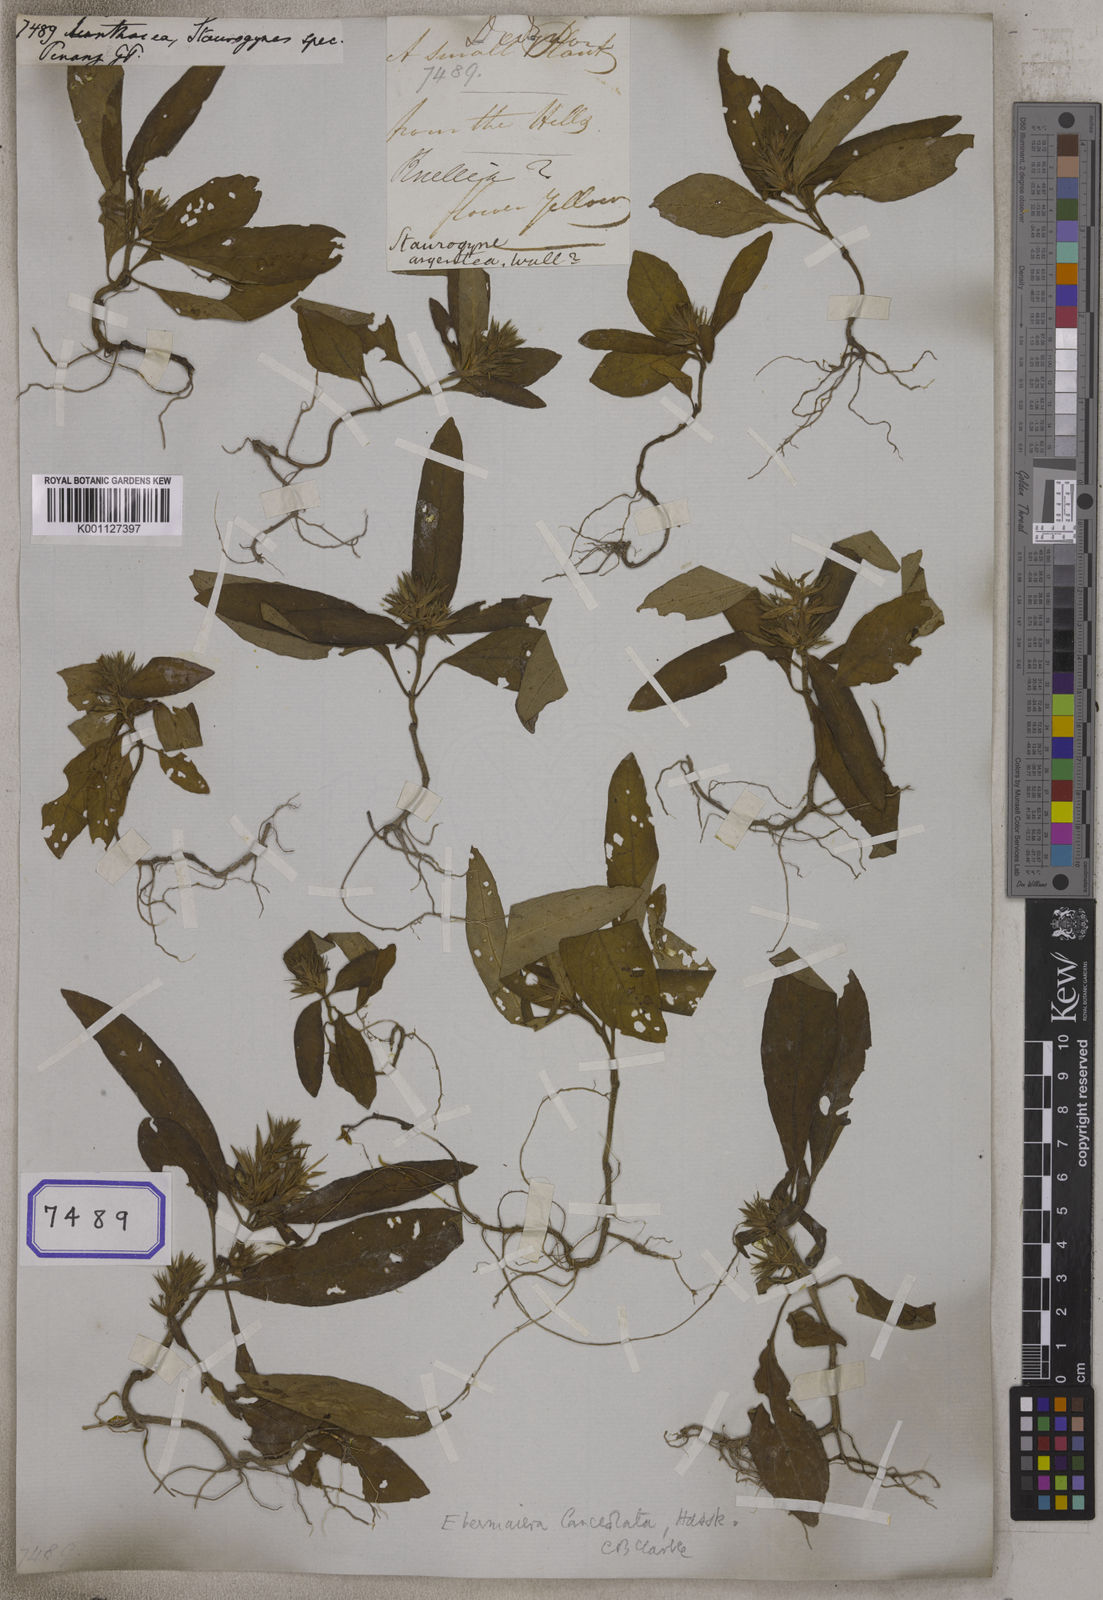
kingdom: Plantae
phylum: Tracheophyta
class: Magnoliopsida
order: Lamiales
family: Acanthaceae
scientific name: Acanthaceae
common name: Acanthaceae
